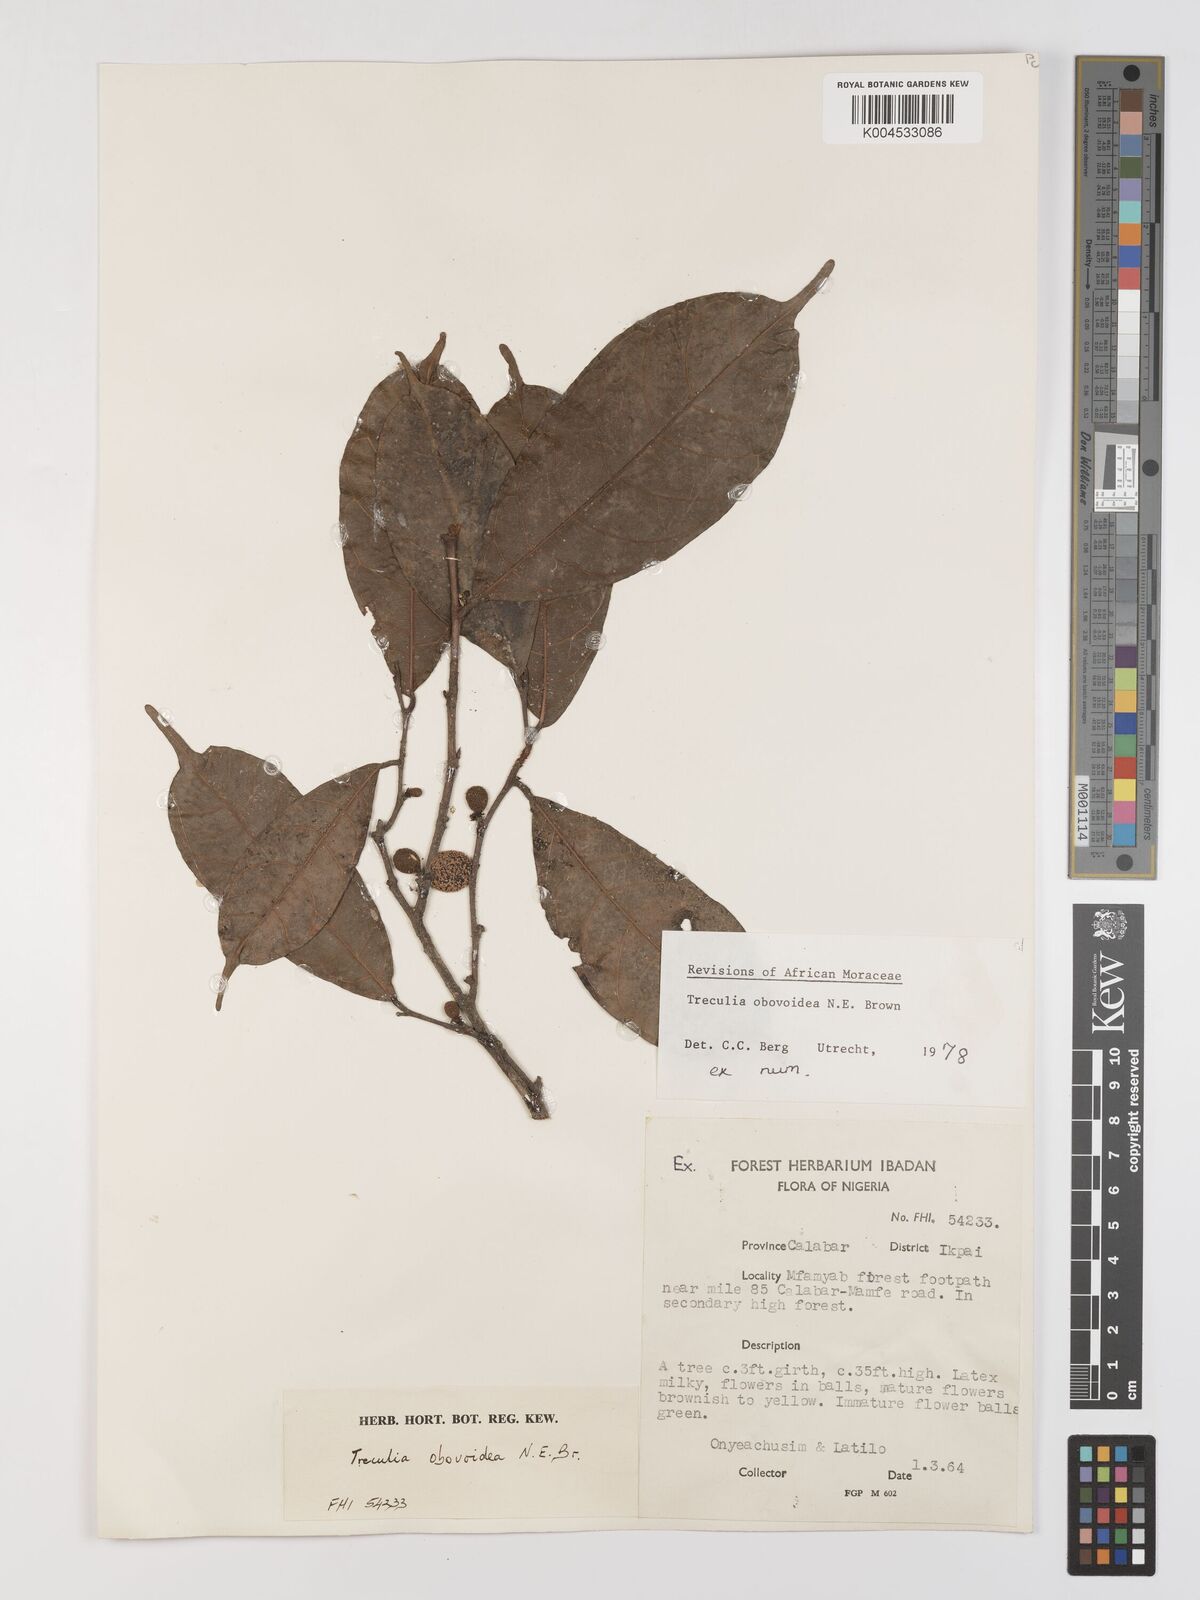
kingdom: Plantae
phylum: Tracheophyta
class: Magnoliopsida
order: Rosales
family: Moraceae
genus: Treculia
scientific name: Treculia obovoidea
